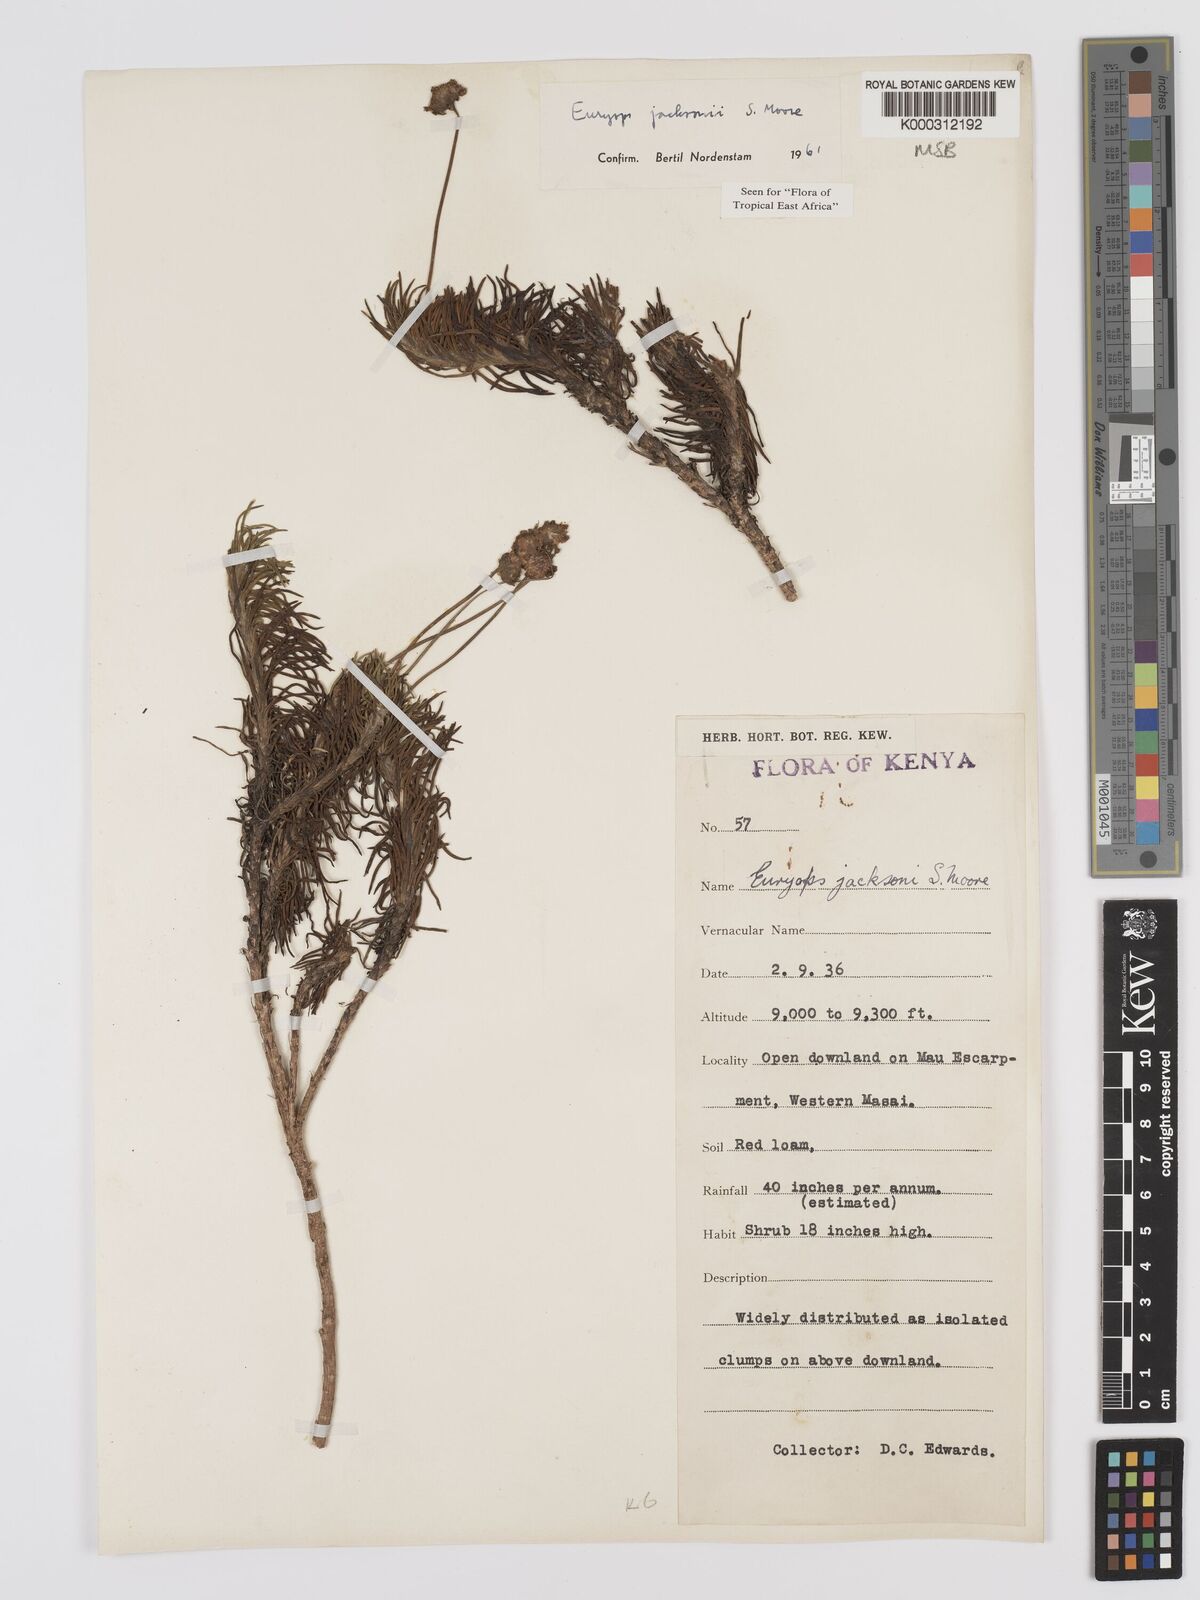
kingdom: Plantae
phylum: Tracheophyta
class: Magnoliopsida
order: Asterales
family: Asteraceae
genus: Euryops
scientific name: Euryops jacksonii
